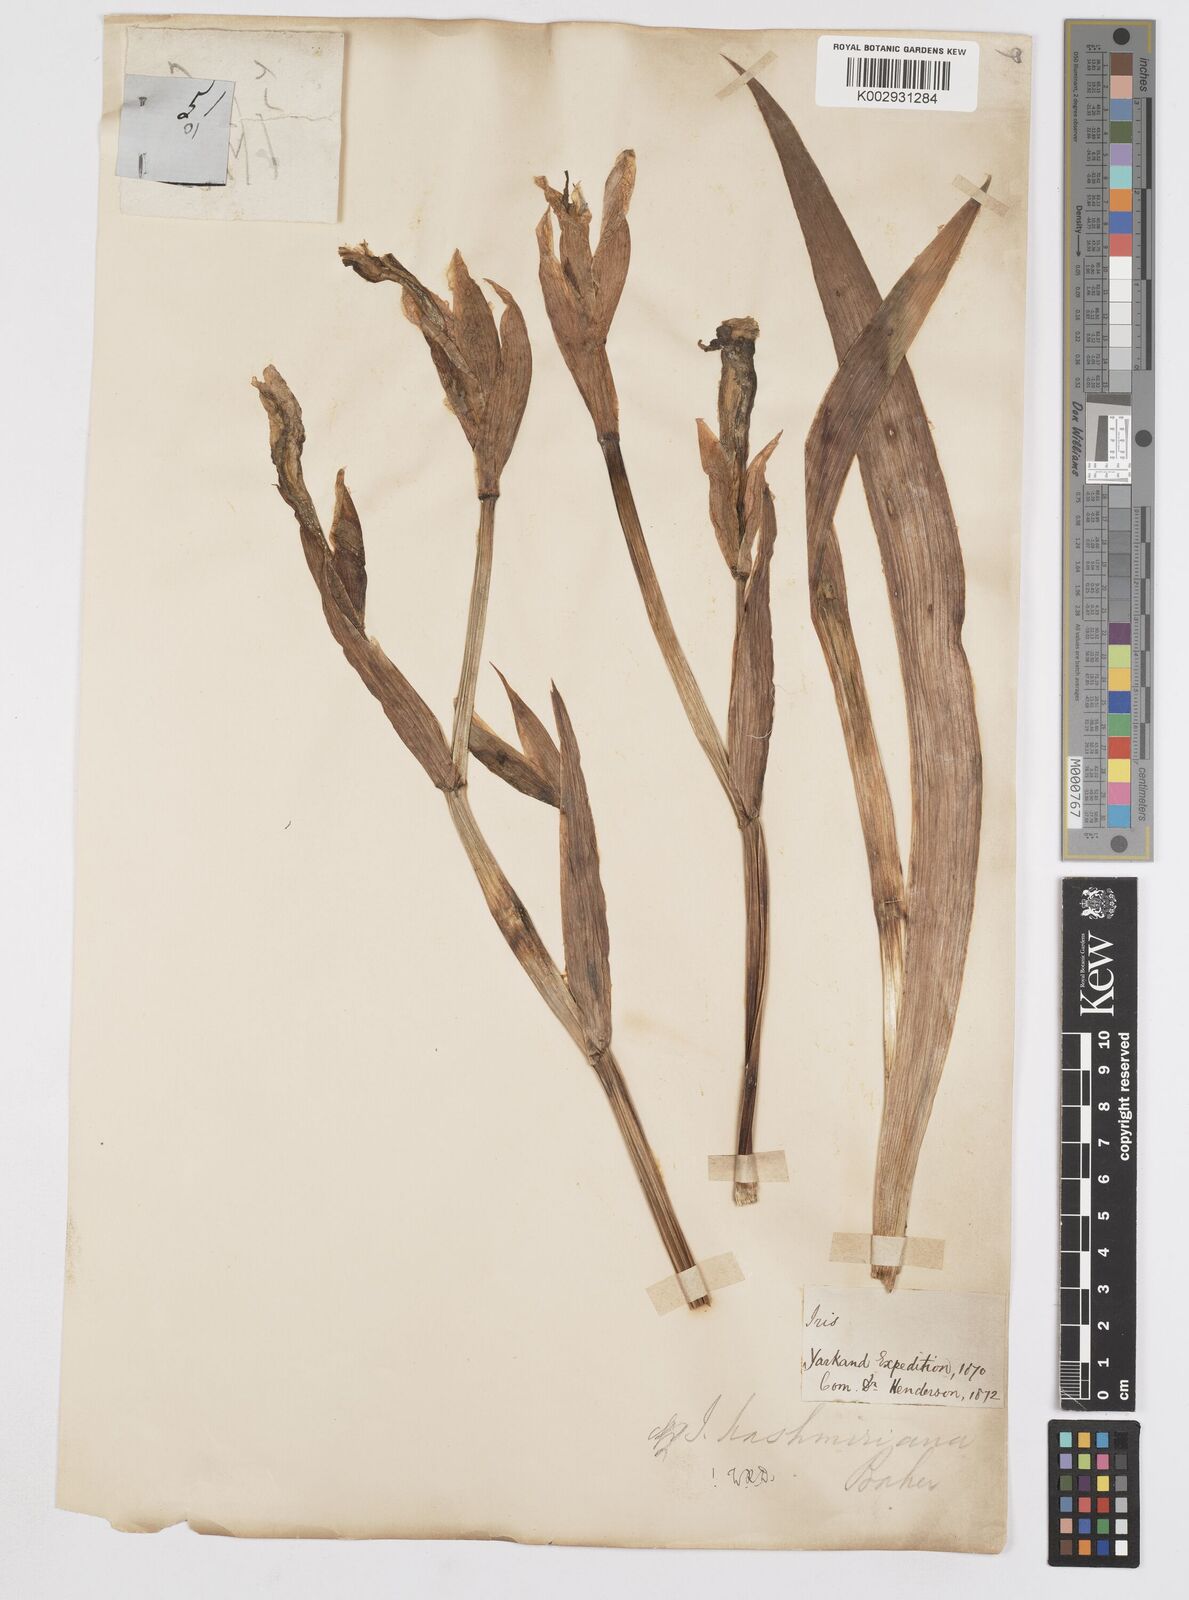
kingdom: Plantae
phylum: Tracheophyta
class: Liliopsida
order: Asparagales
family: Iridaceae
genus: Iris
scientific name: Iris kashmiriana
